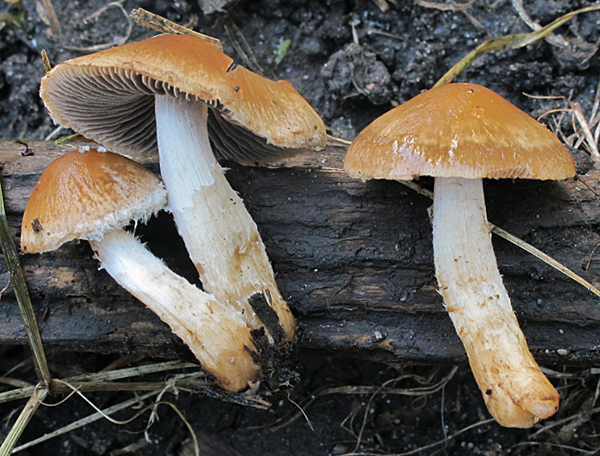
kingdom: Fungi
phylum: Basidiomycota
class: Agaricomycetes
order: Agaricales
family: Psathyrellaceae
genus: Typhrasa
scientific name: Typhrasa gossypina
